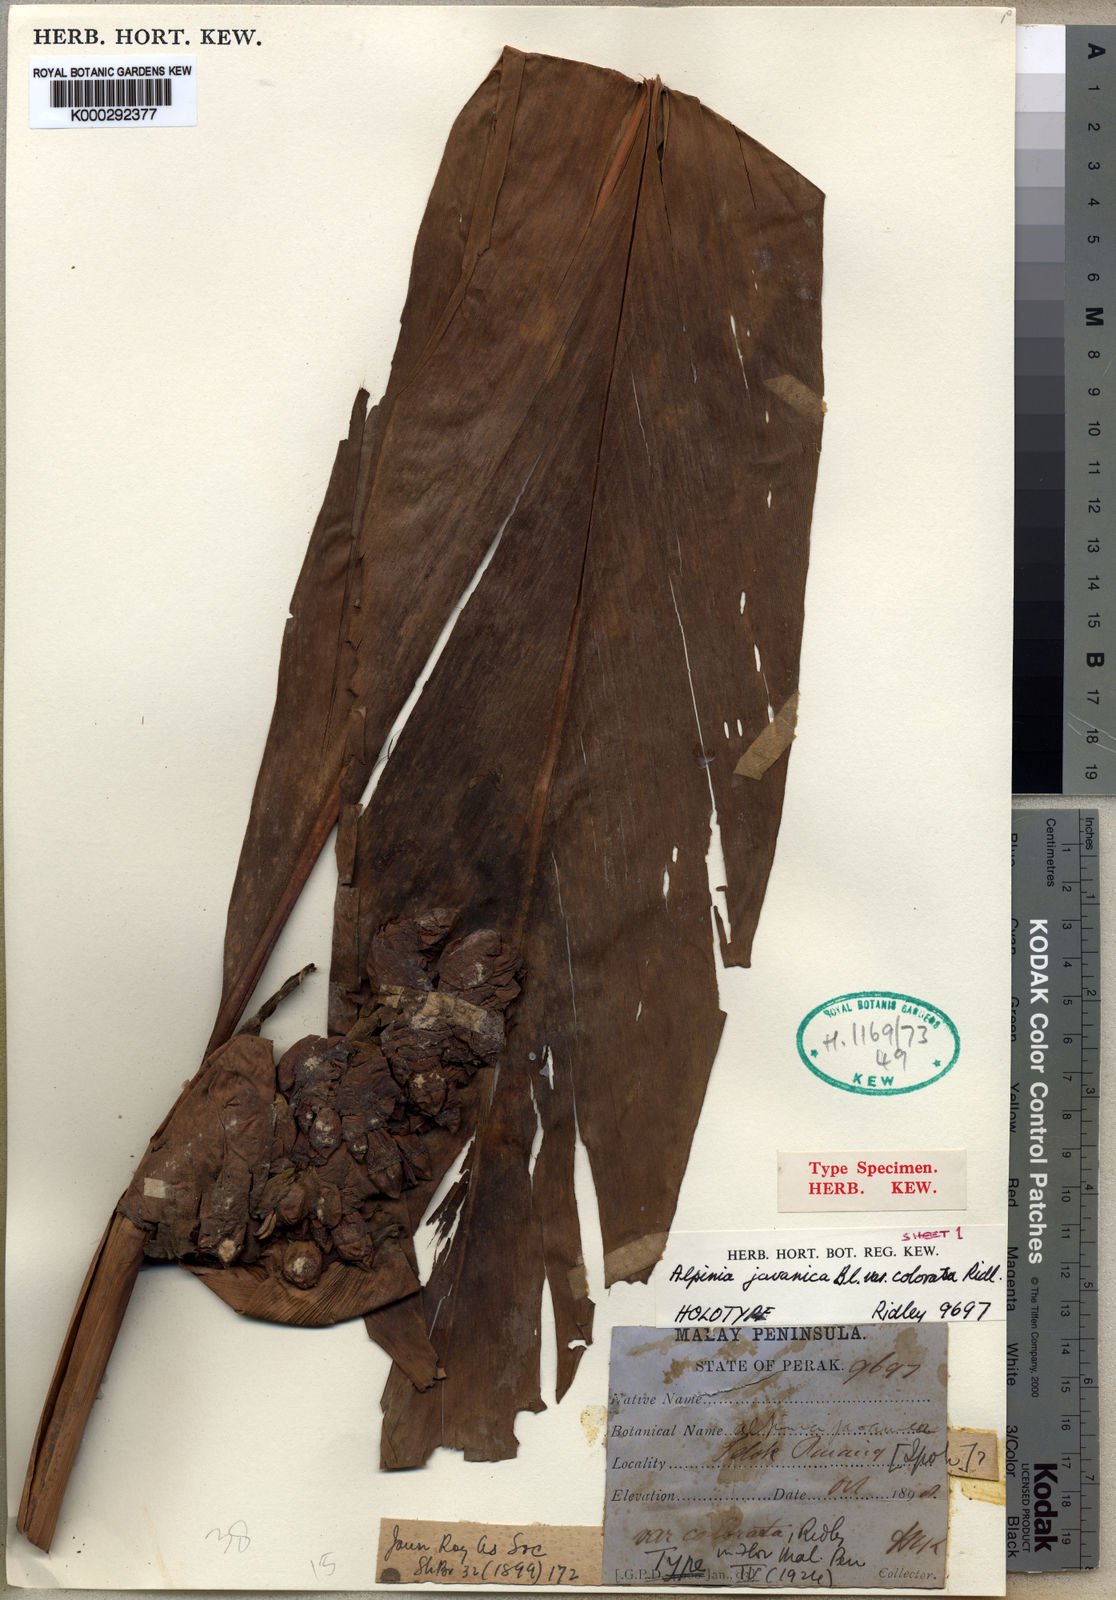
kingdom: Plantae
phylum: Tracheophyta
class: Liliopsida
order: Zingiberales
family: Zingiberaceae
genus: Etlingera
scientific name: Etlingera elatior
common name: Philippine waxflower
